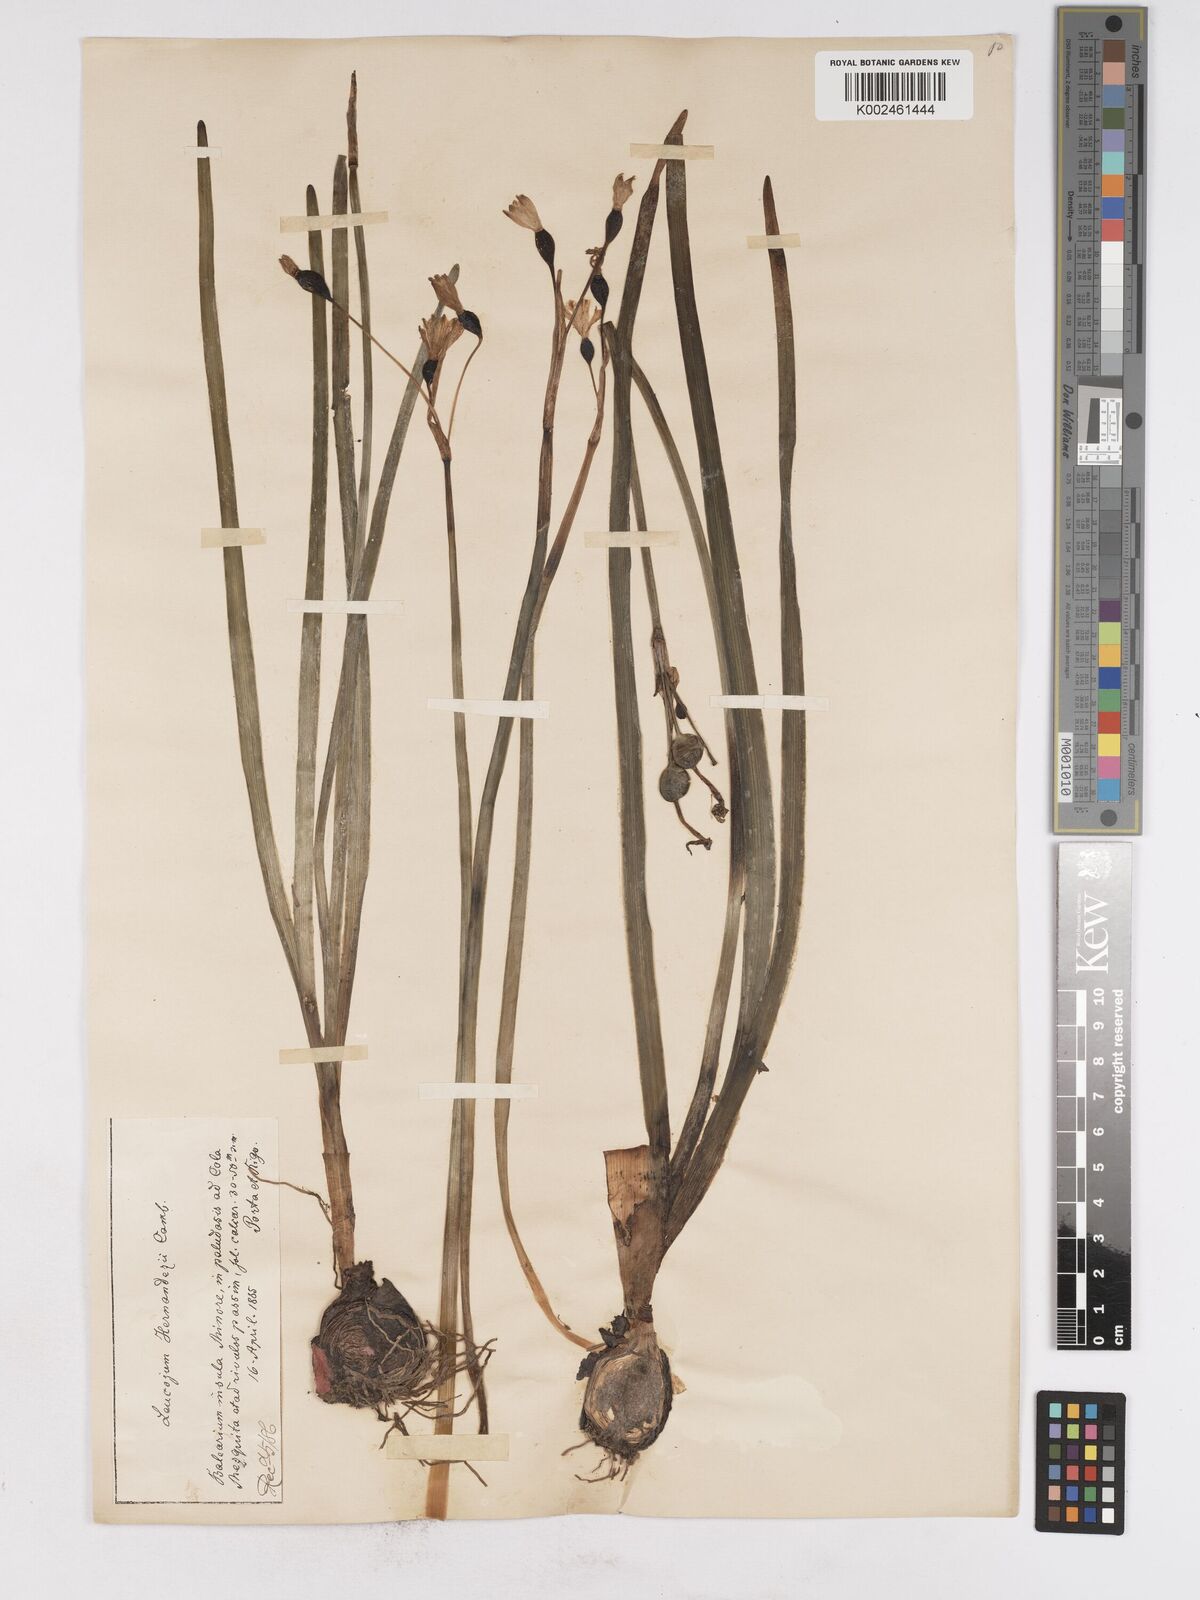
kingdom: Plantae
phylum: Tracheophyta
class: Liliopsida
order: Asparagales
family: Amaryllidaceae
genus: Leucojum
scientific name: Leucojum aestivum
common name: Summer snowflake
